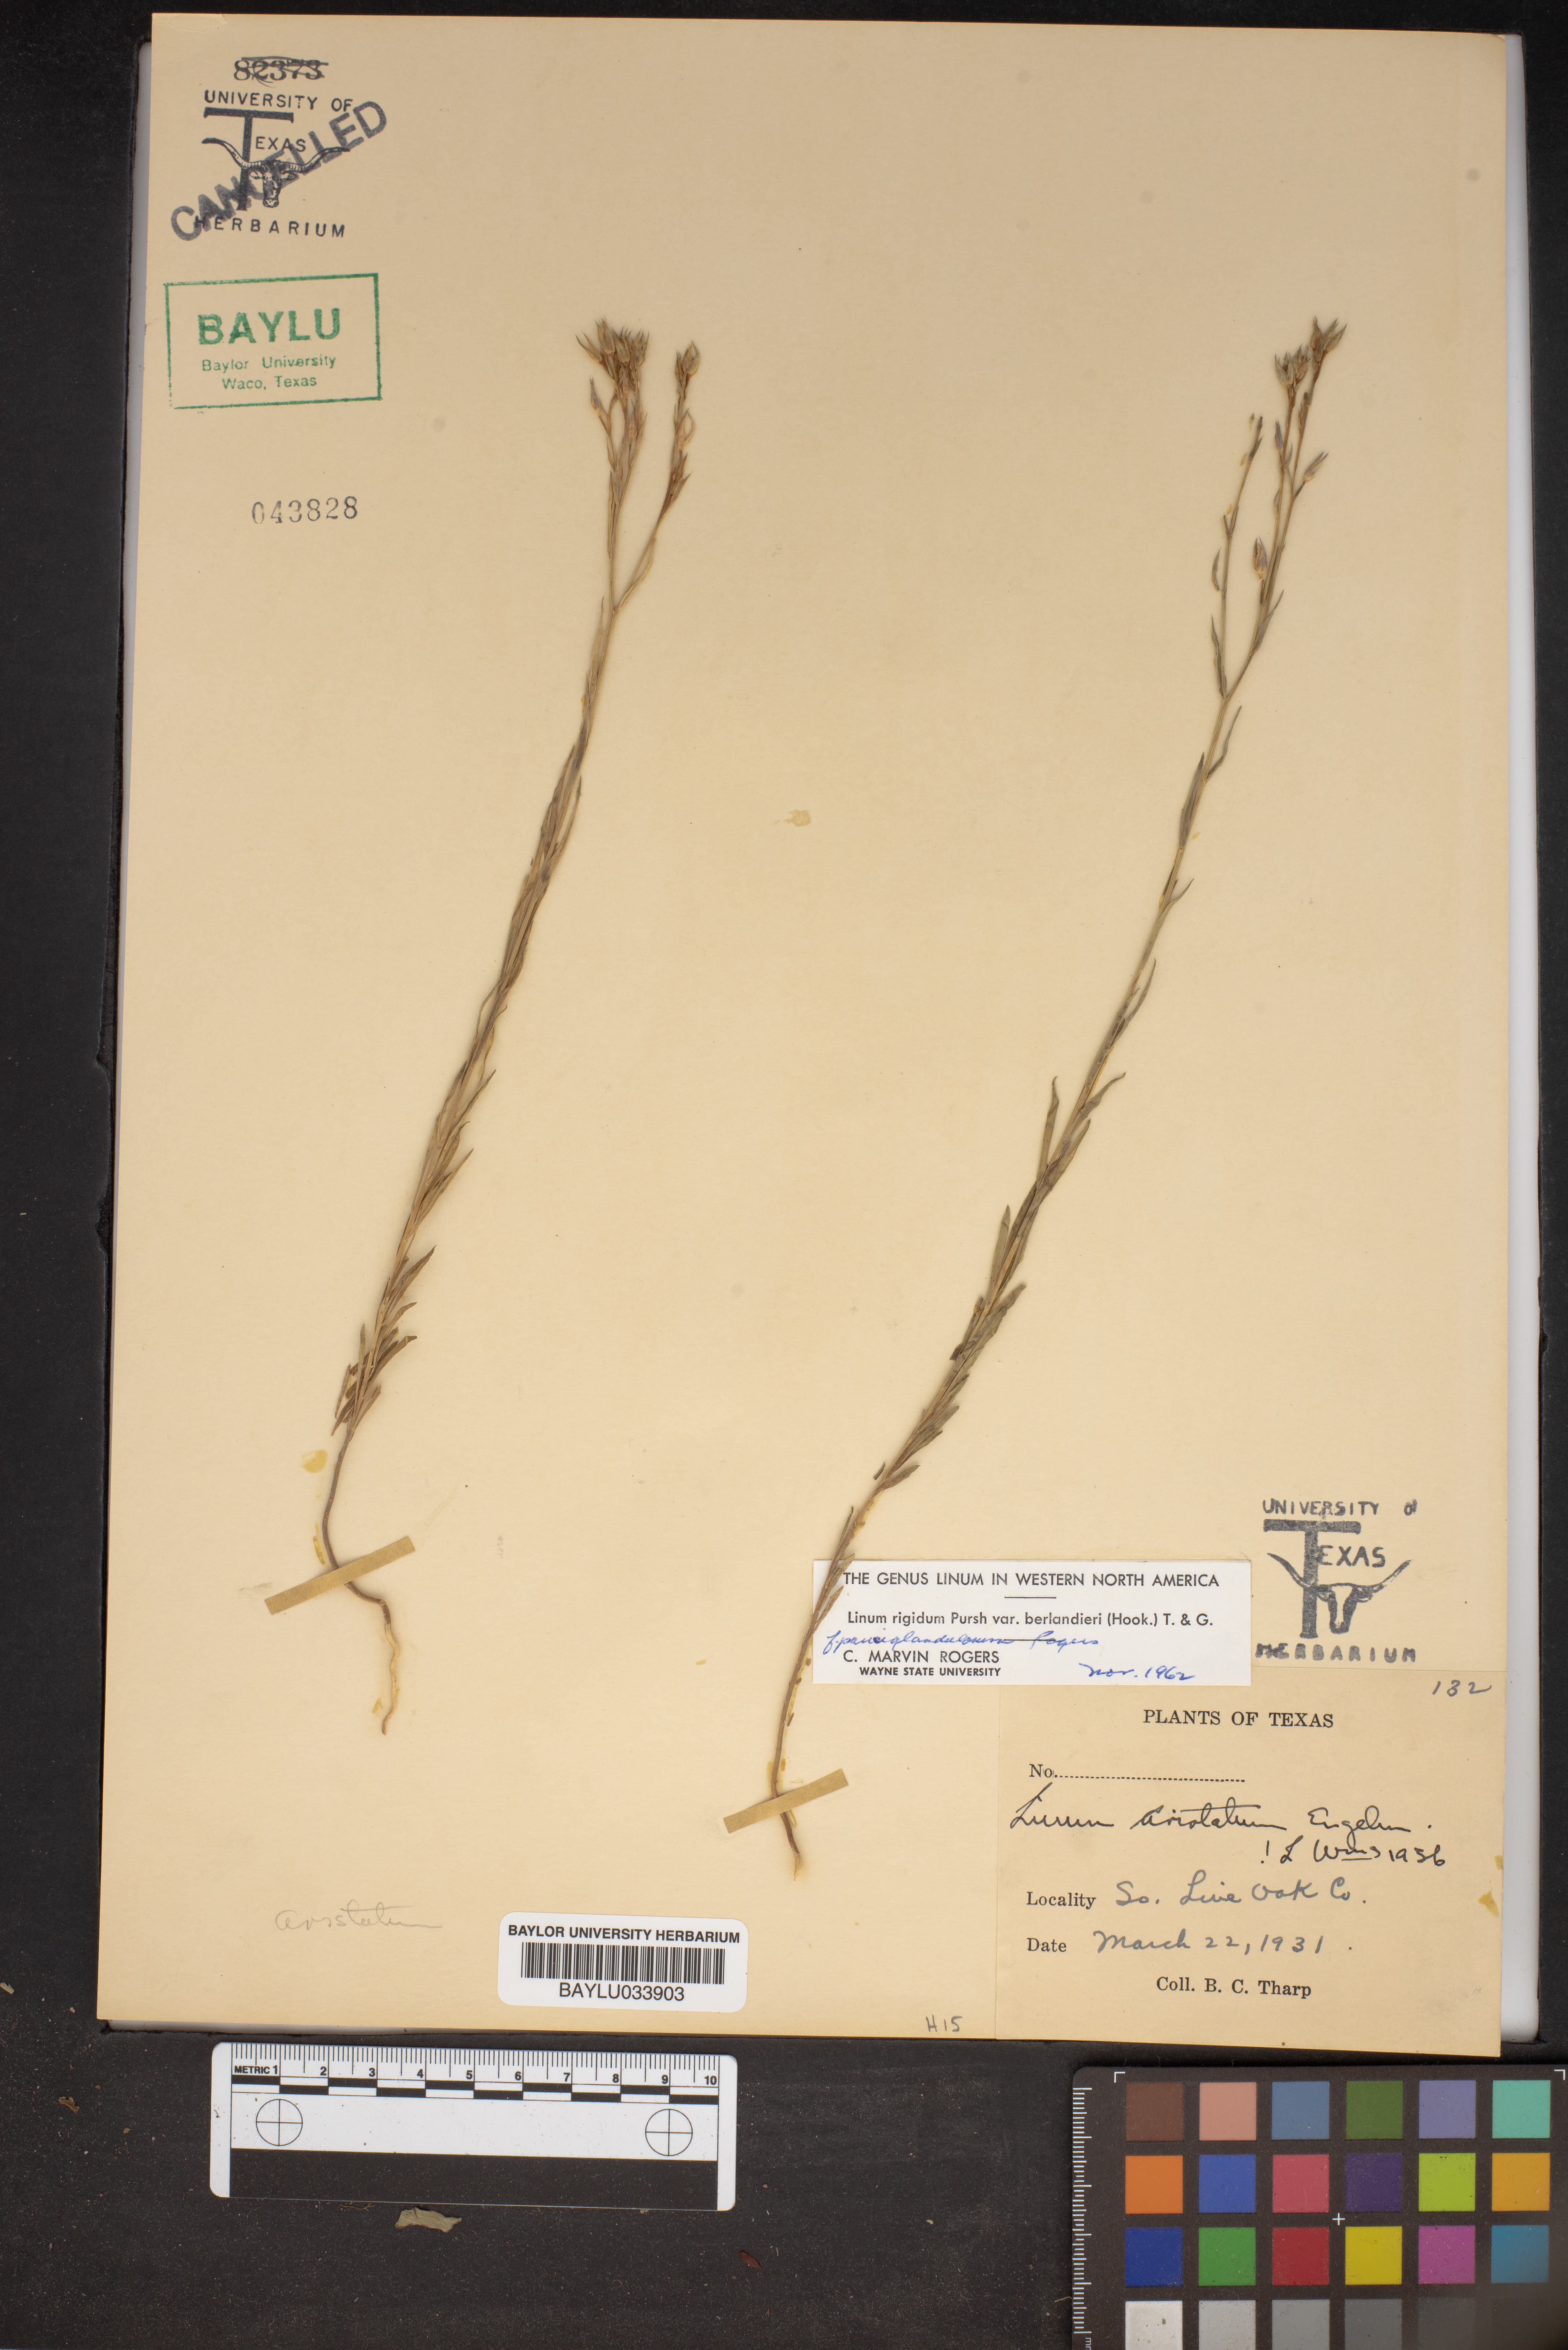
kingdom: Plantae
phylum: Tracheophyta
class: Magnoliopsida
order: Malpighiales
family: Linaceae
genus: Linum
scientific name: Linum berlandieri
